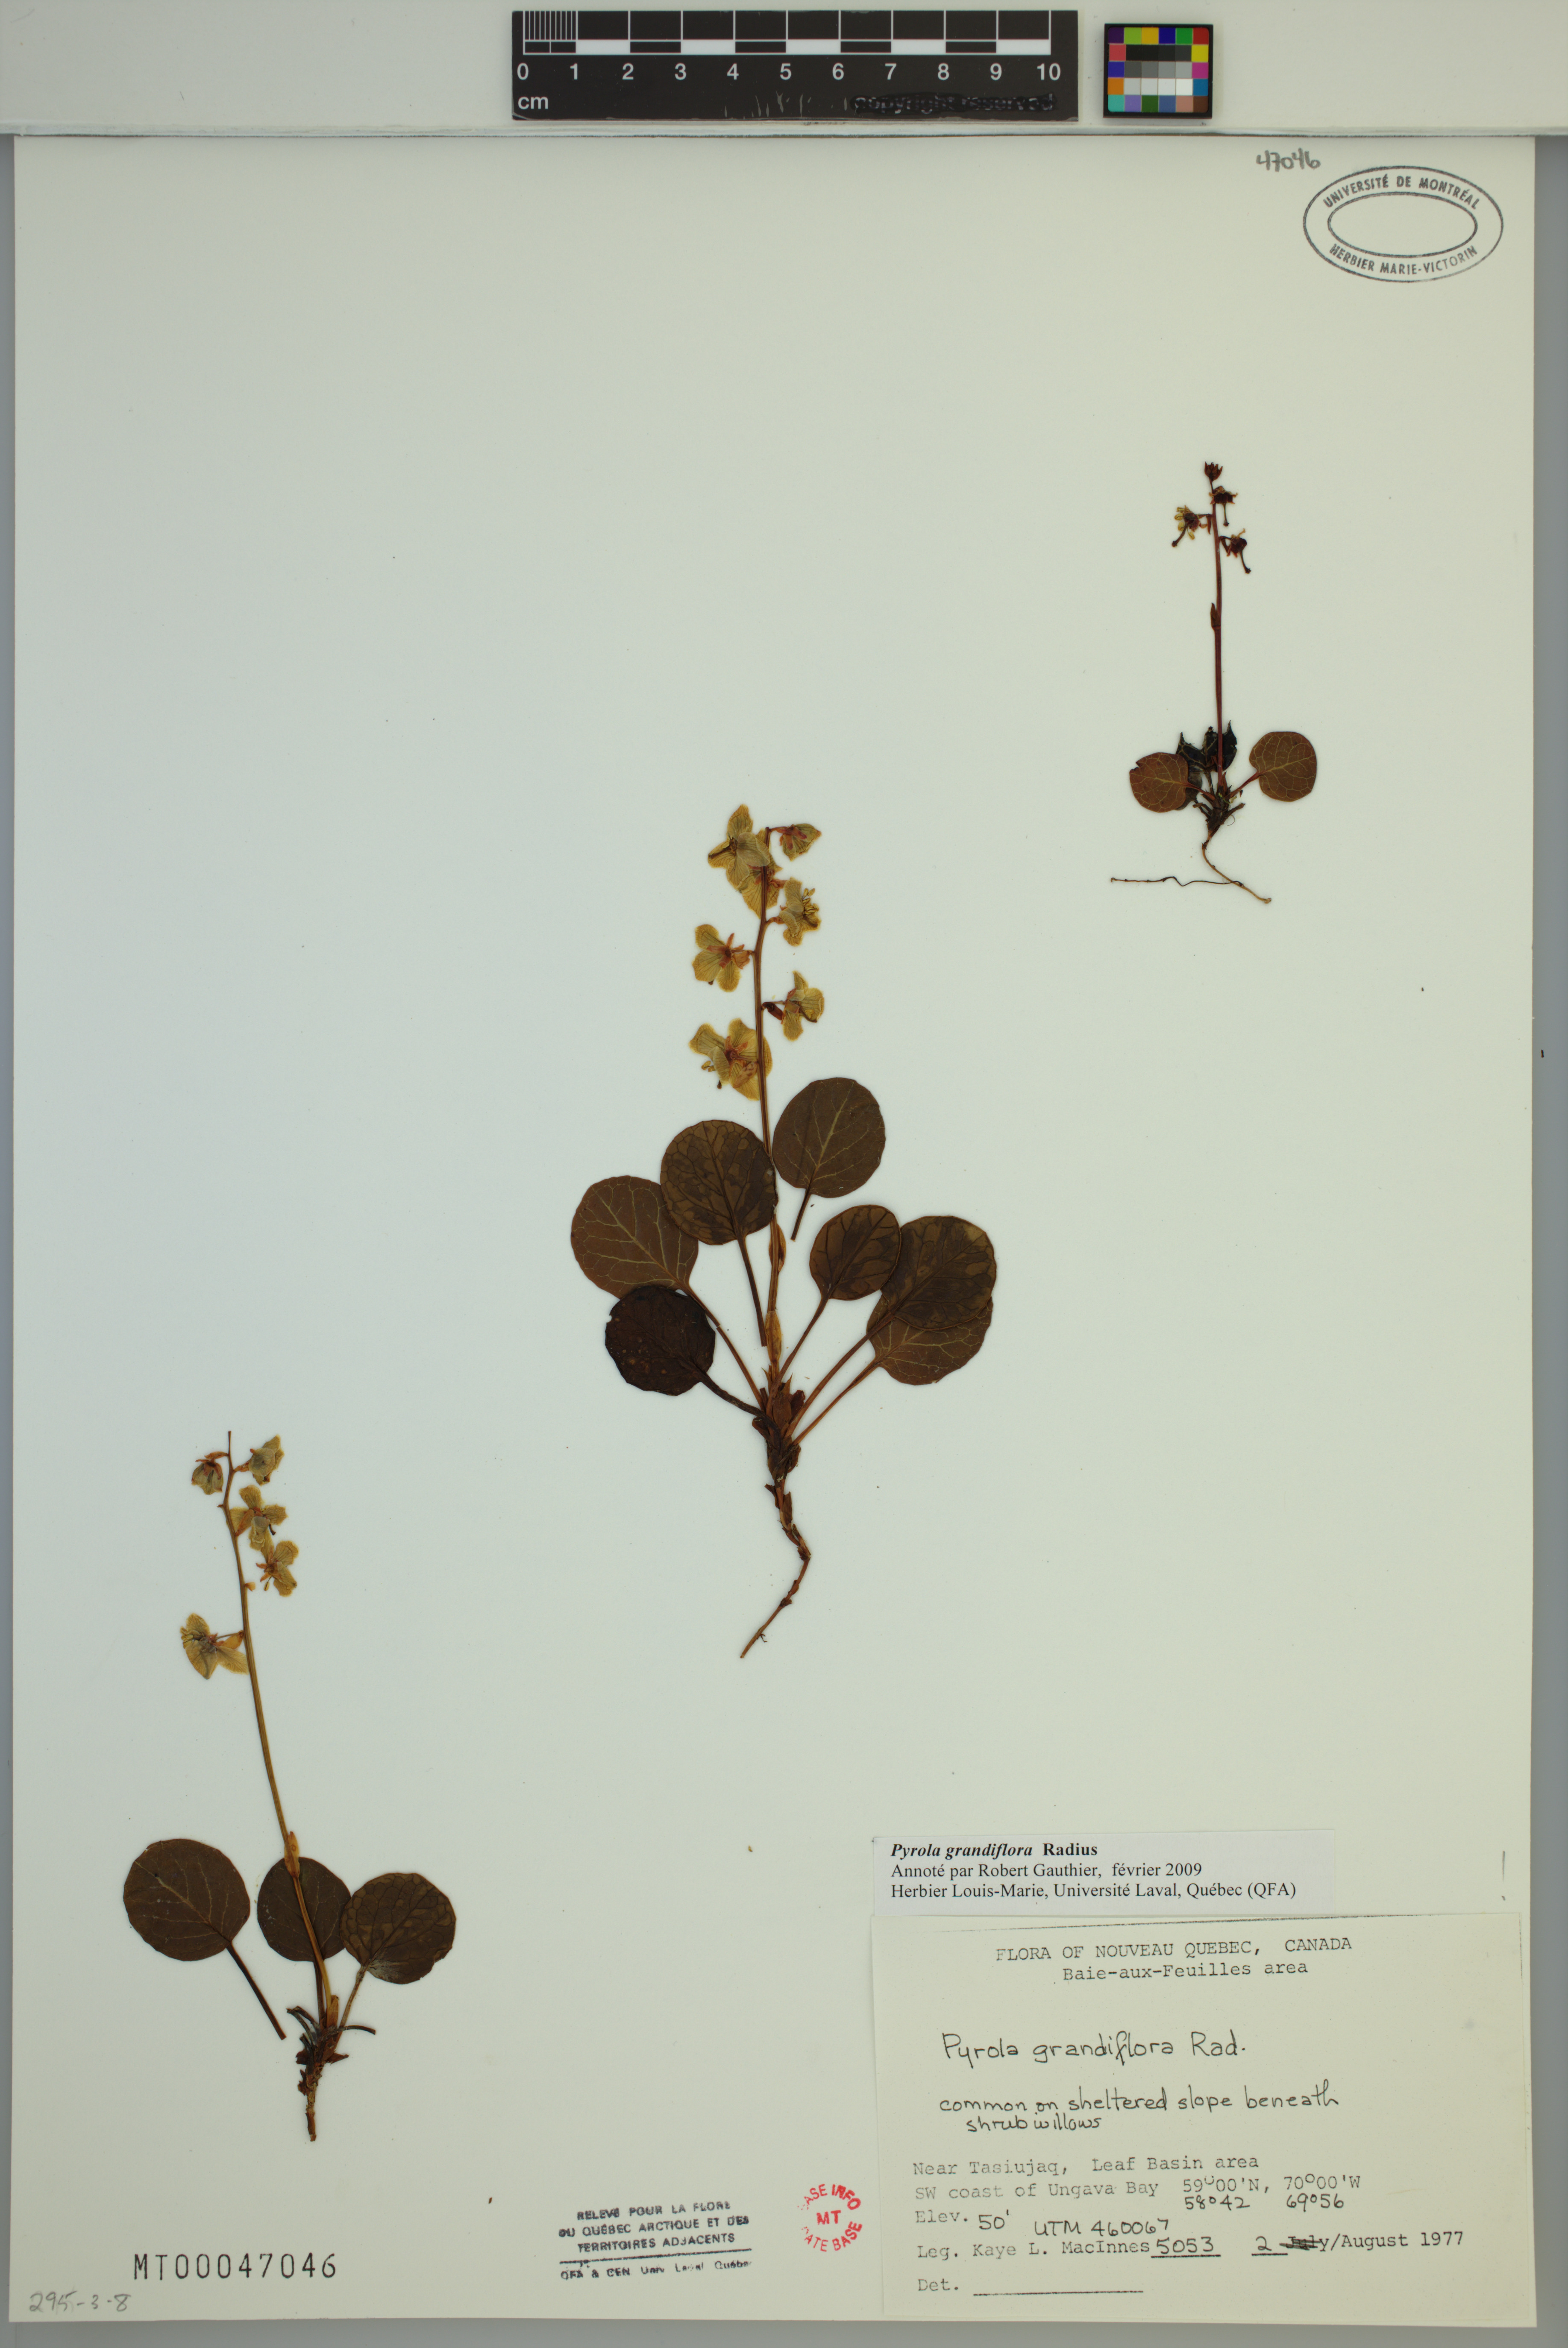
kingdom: Plantae
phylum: Tracheophyta
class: Magnoliopsida
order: Ericales
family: Ericaceae
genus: Pyrola
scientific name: Pyrola grandiflora
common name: Arctic pyrola
